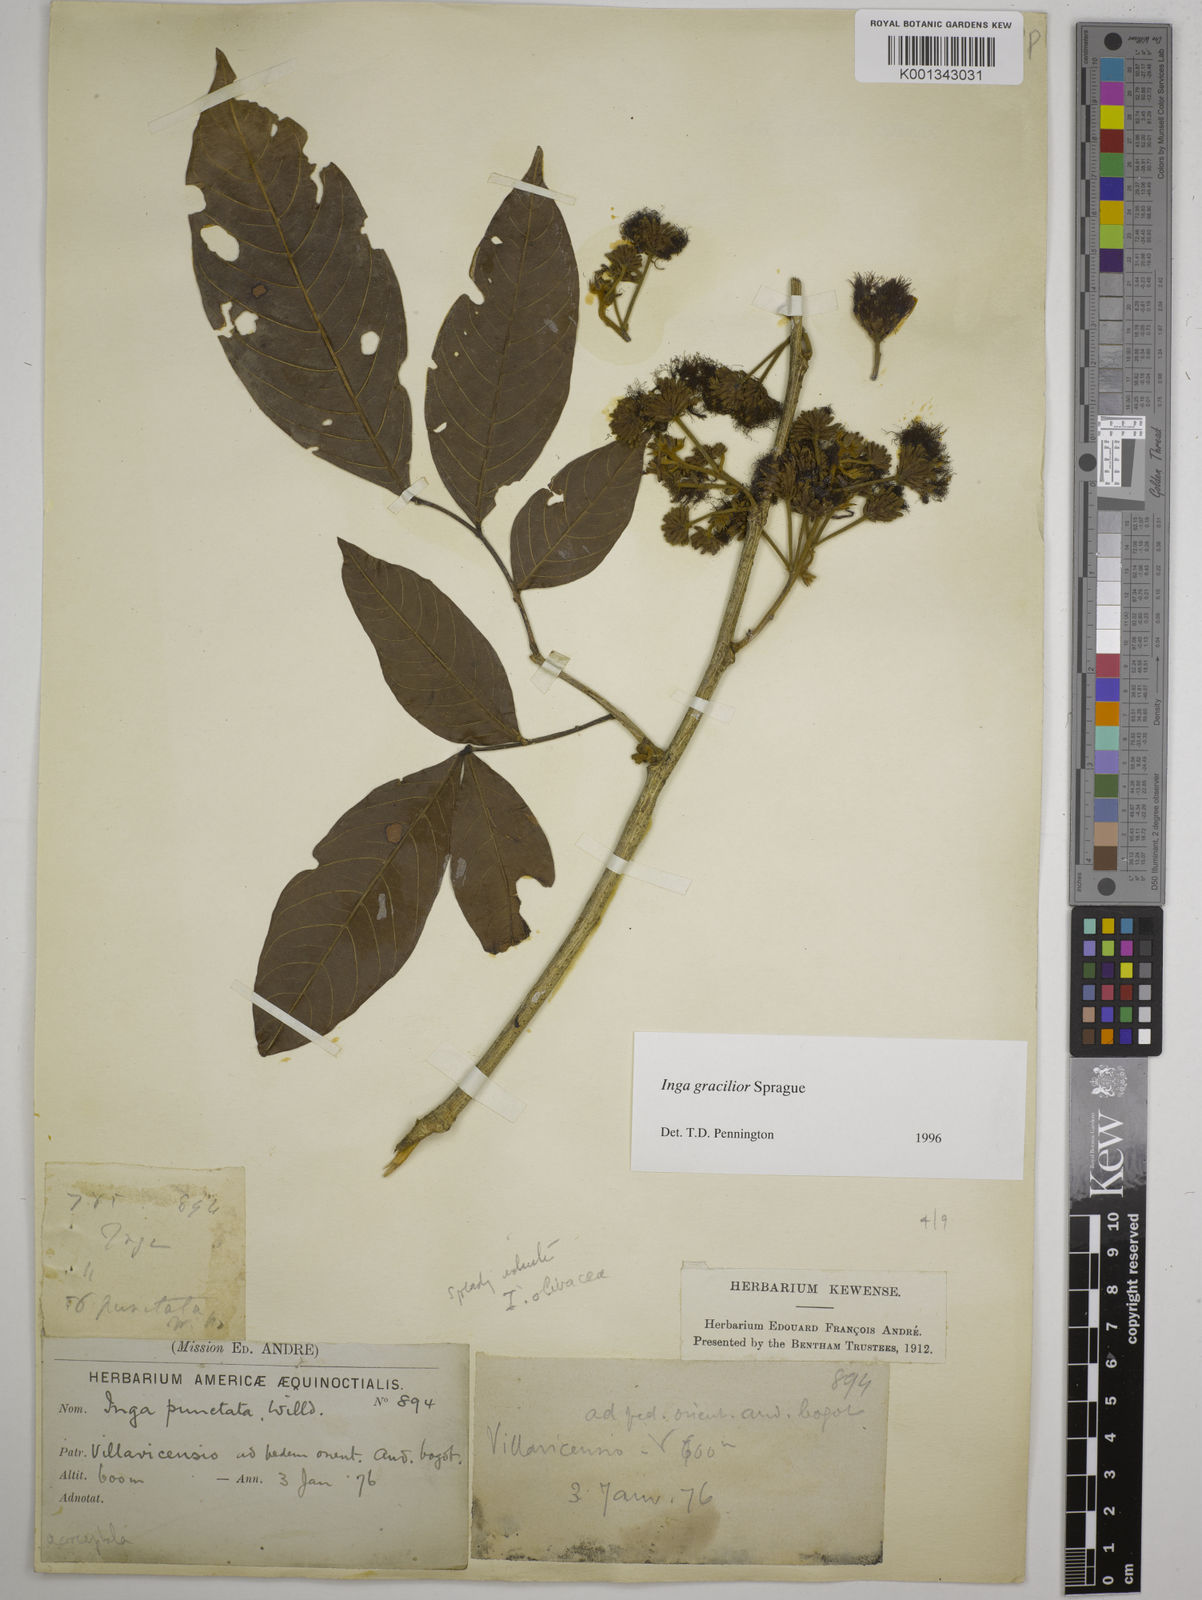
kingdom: Plantae
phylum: Tracheophyta
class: Magnoliopsida
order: Fabales
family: Fabaceae
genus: Inga
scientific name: Inga gracilior
